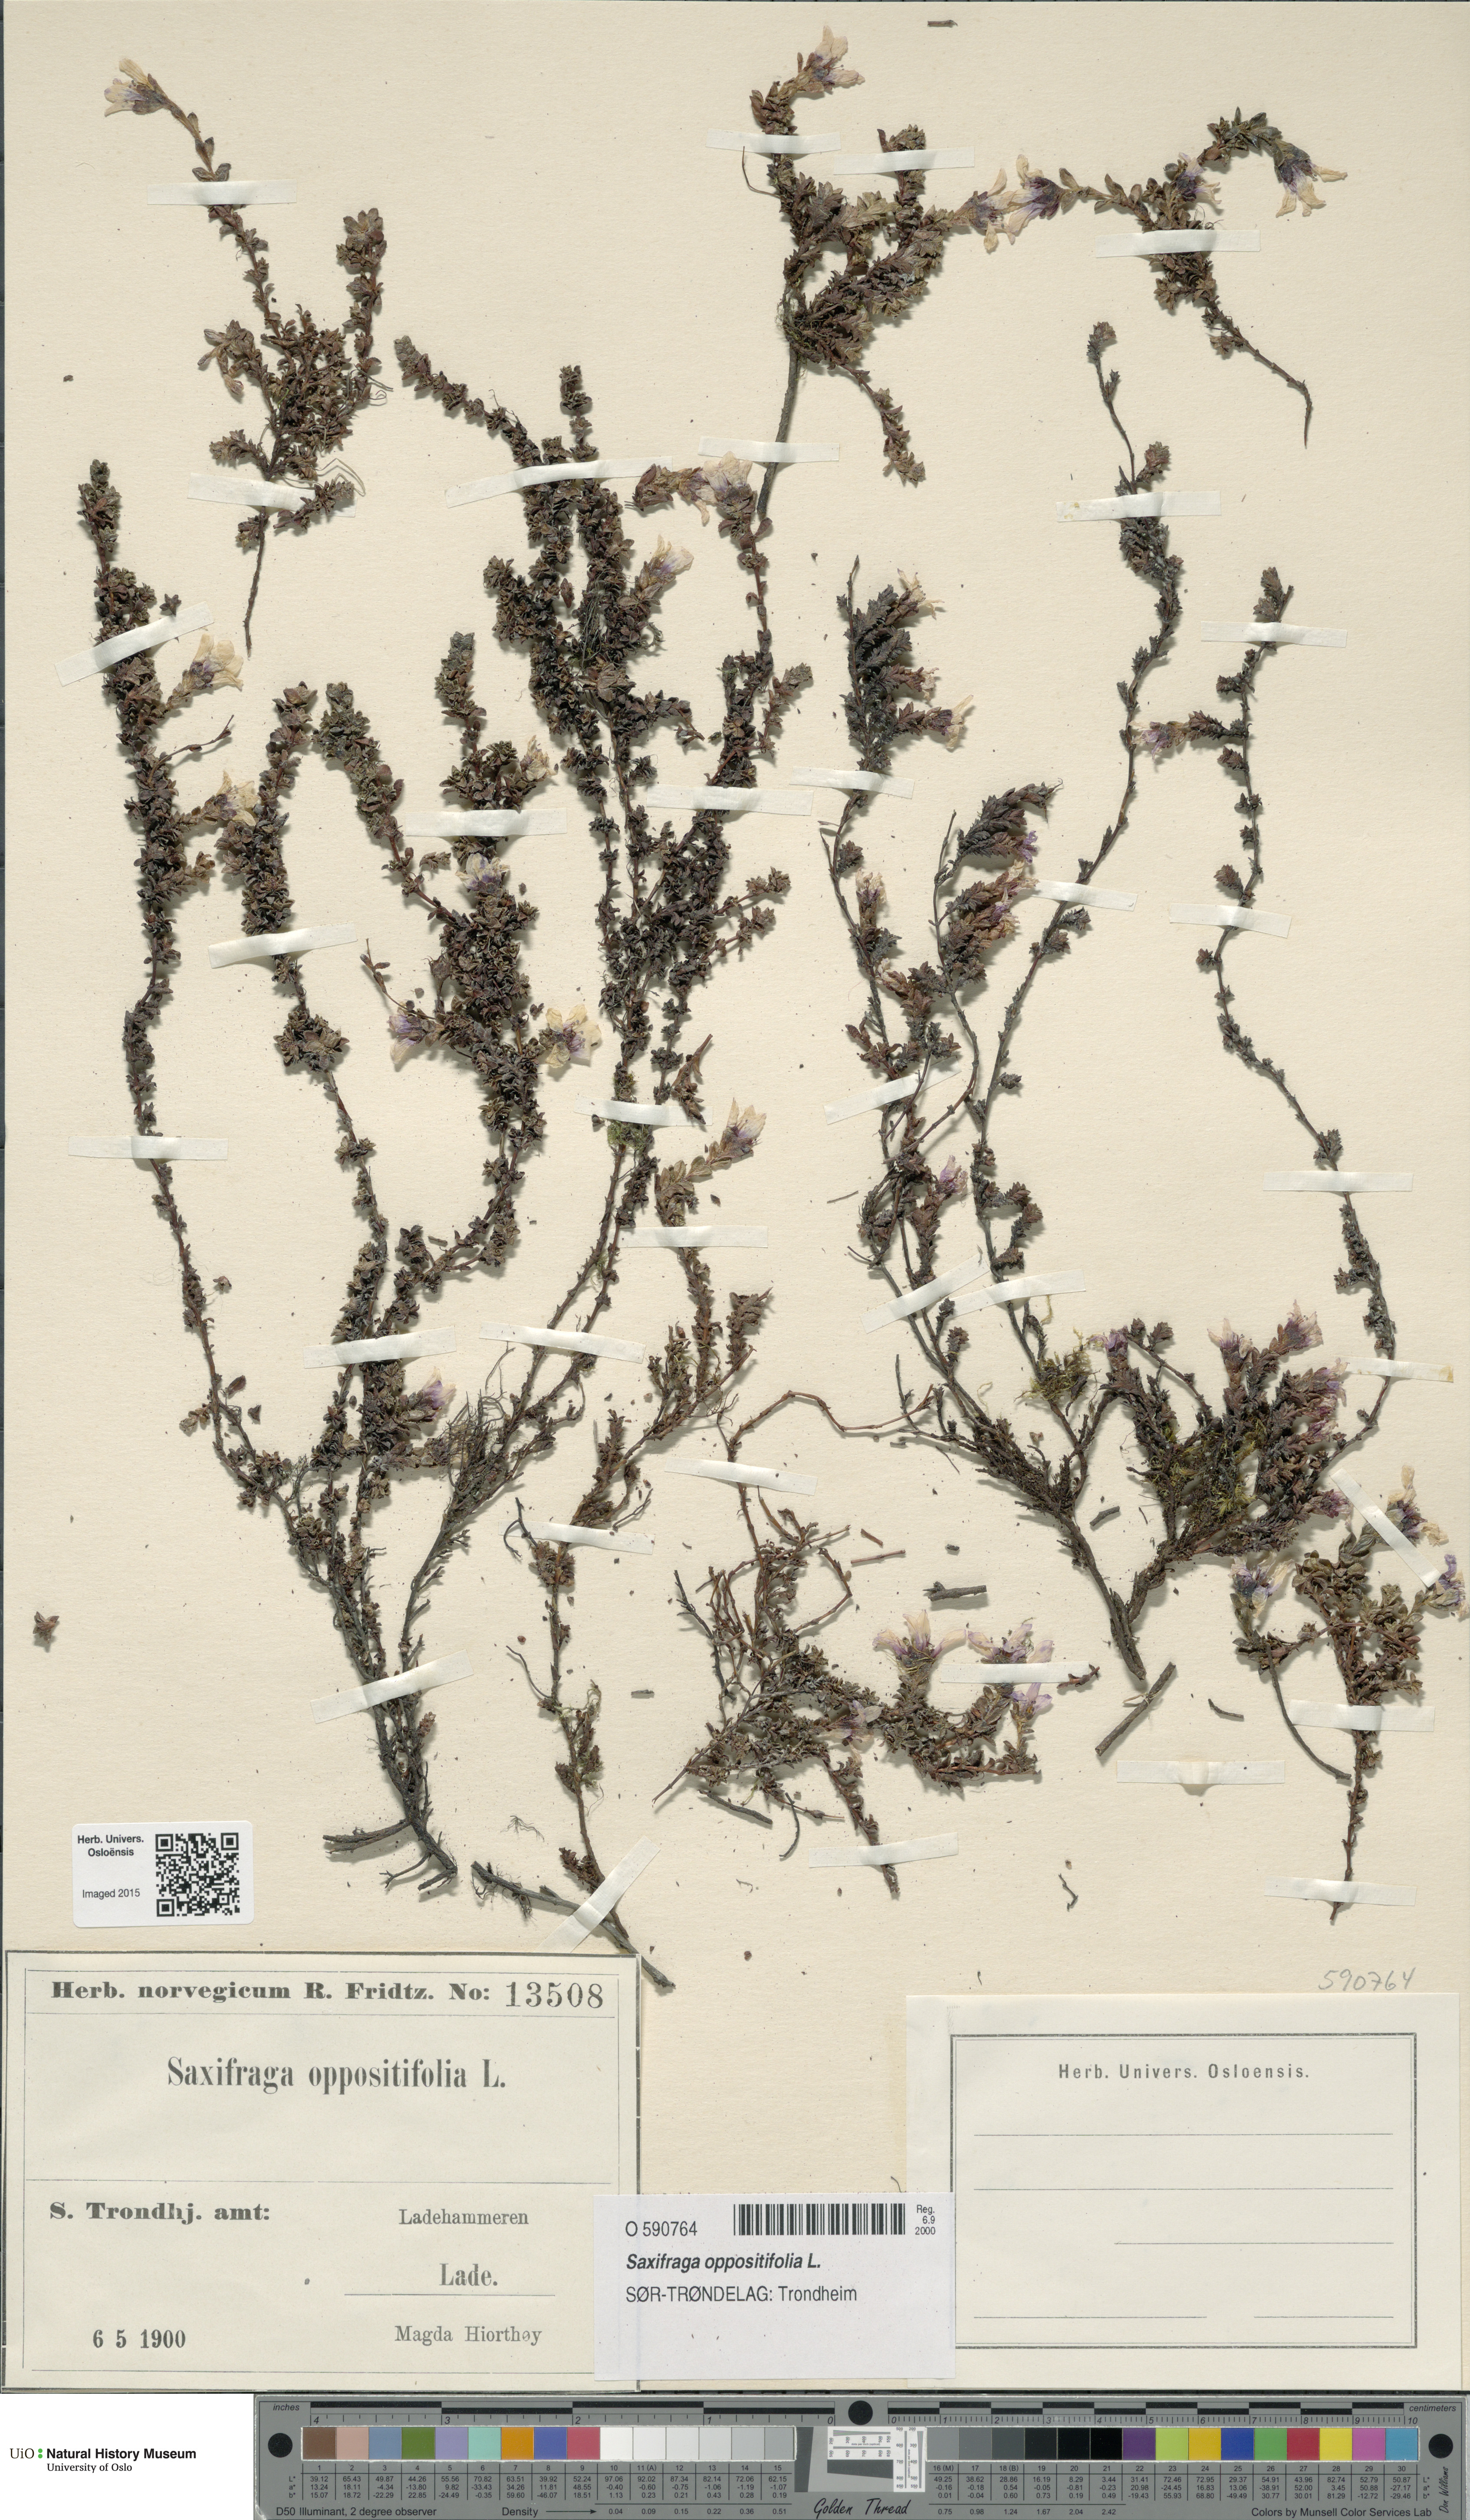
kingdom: Plantae
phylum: Tracheophyta
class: Magnoliopsida
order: Saxifragales
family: Saxifragaceae
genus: Saxifraga
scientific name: Saxifraga oppositifolia
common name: Purple saxifrage
